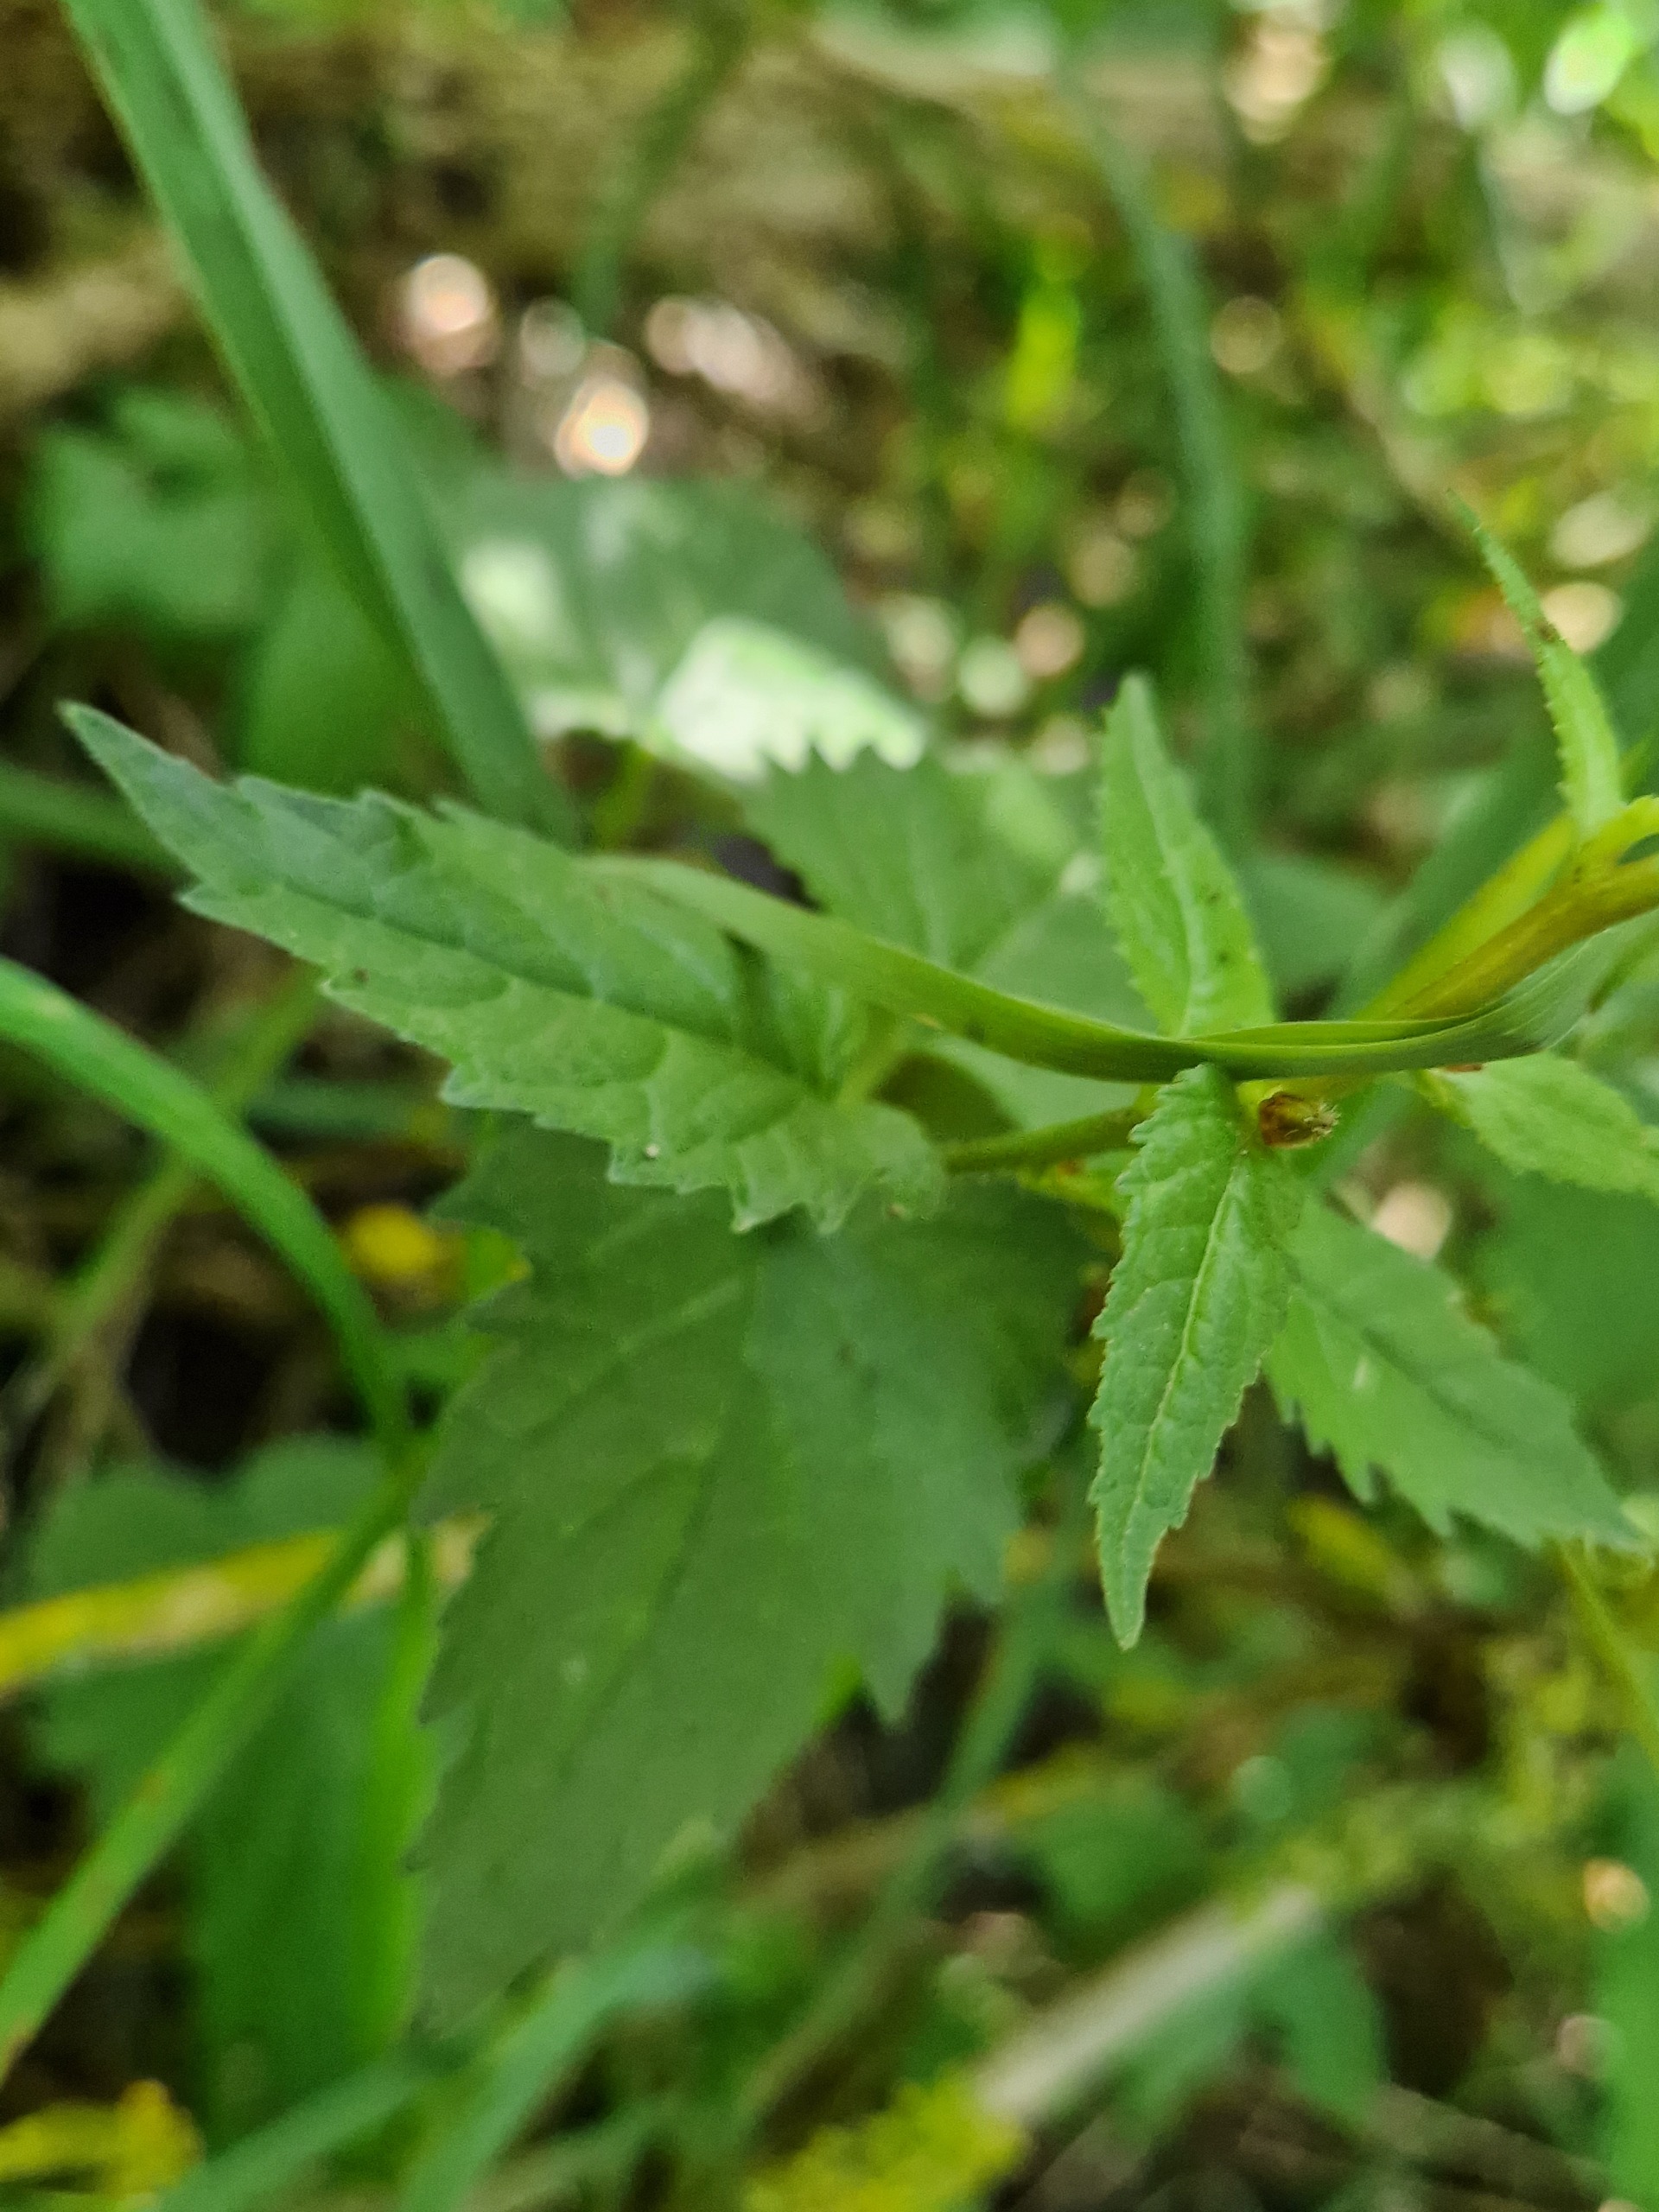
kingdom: Plantae
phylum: Tracheophyta
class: Magnoliopsida
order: Asterales
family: Campanulaceae
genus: Campanula
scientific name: Campanula trachelium
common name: Nælde-klokke
